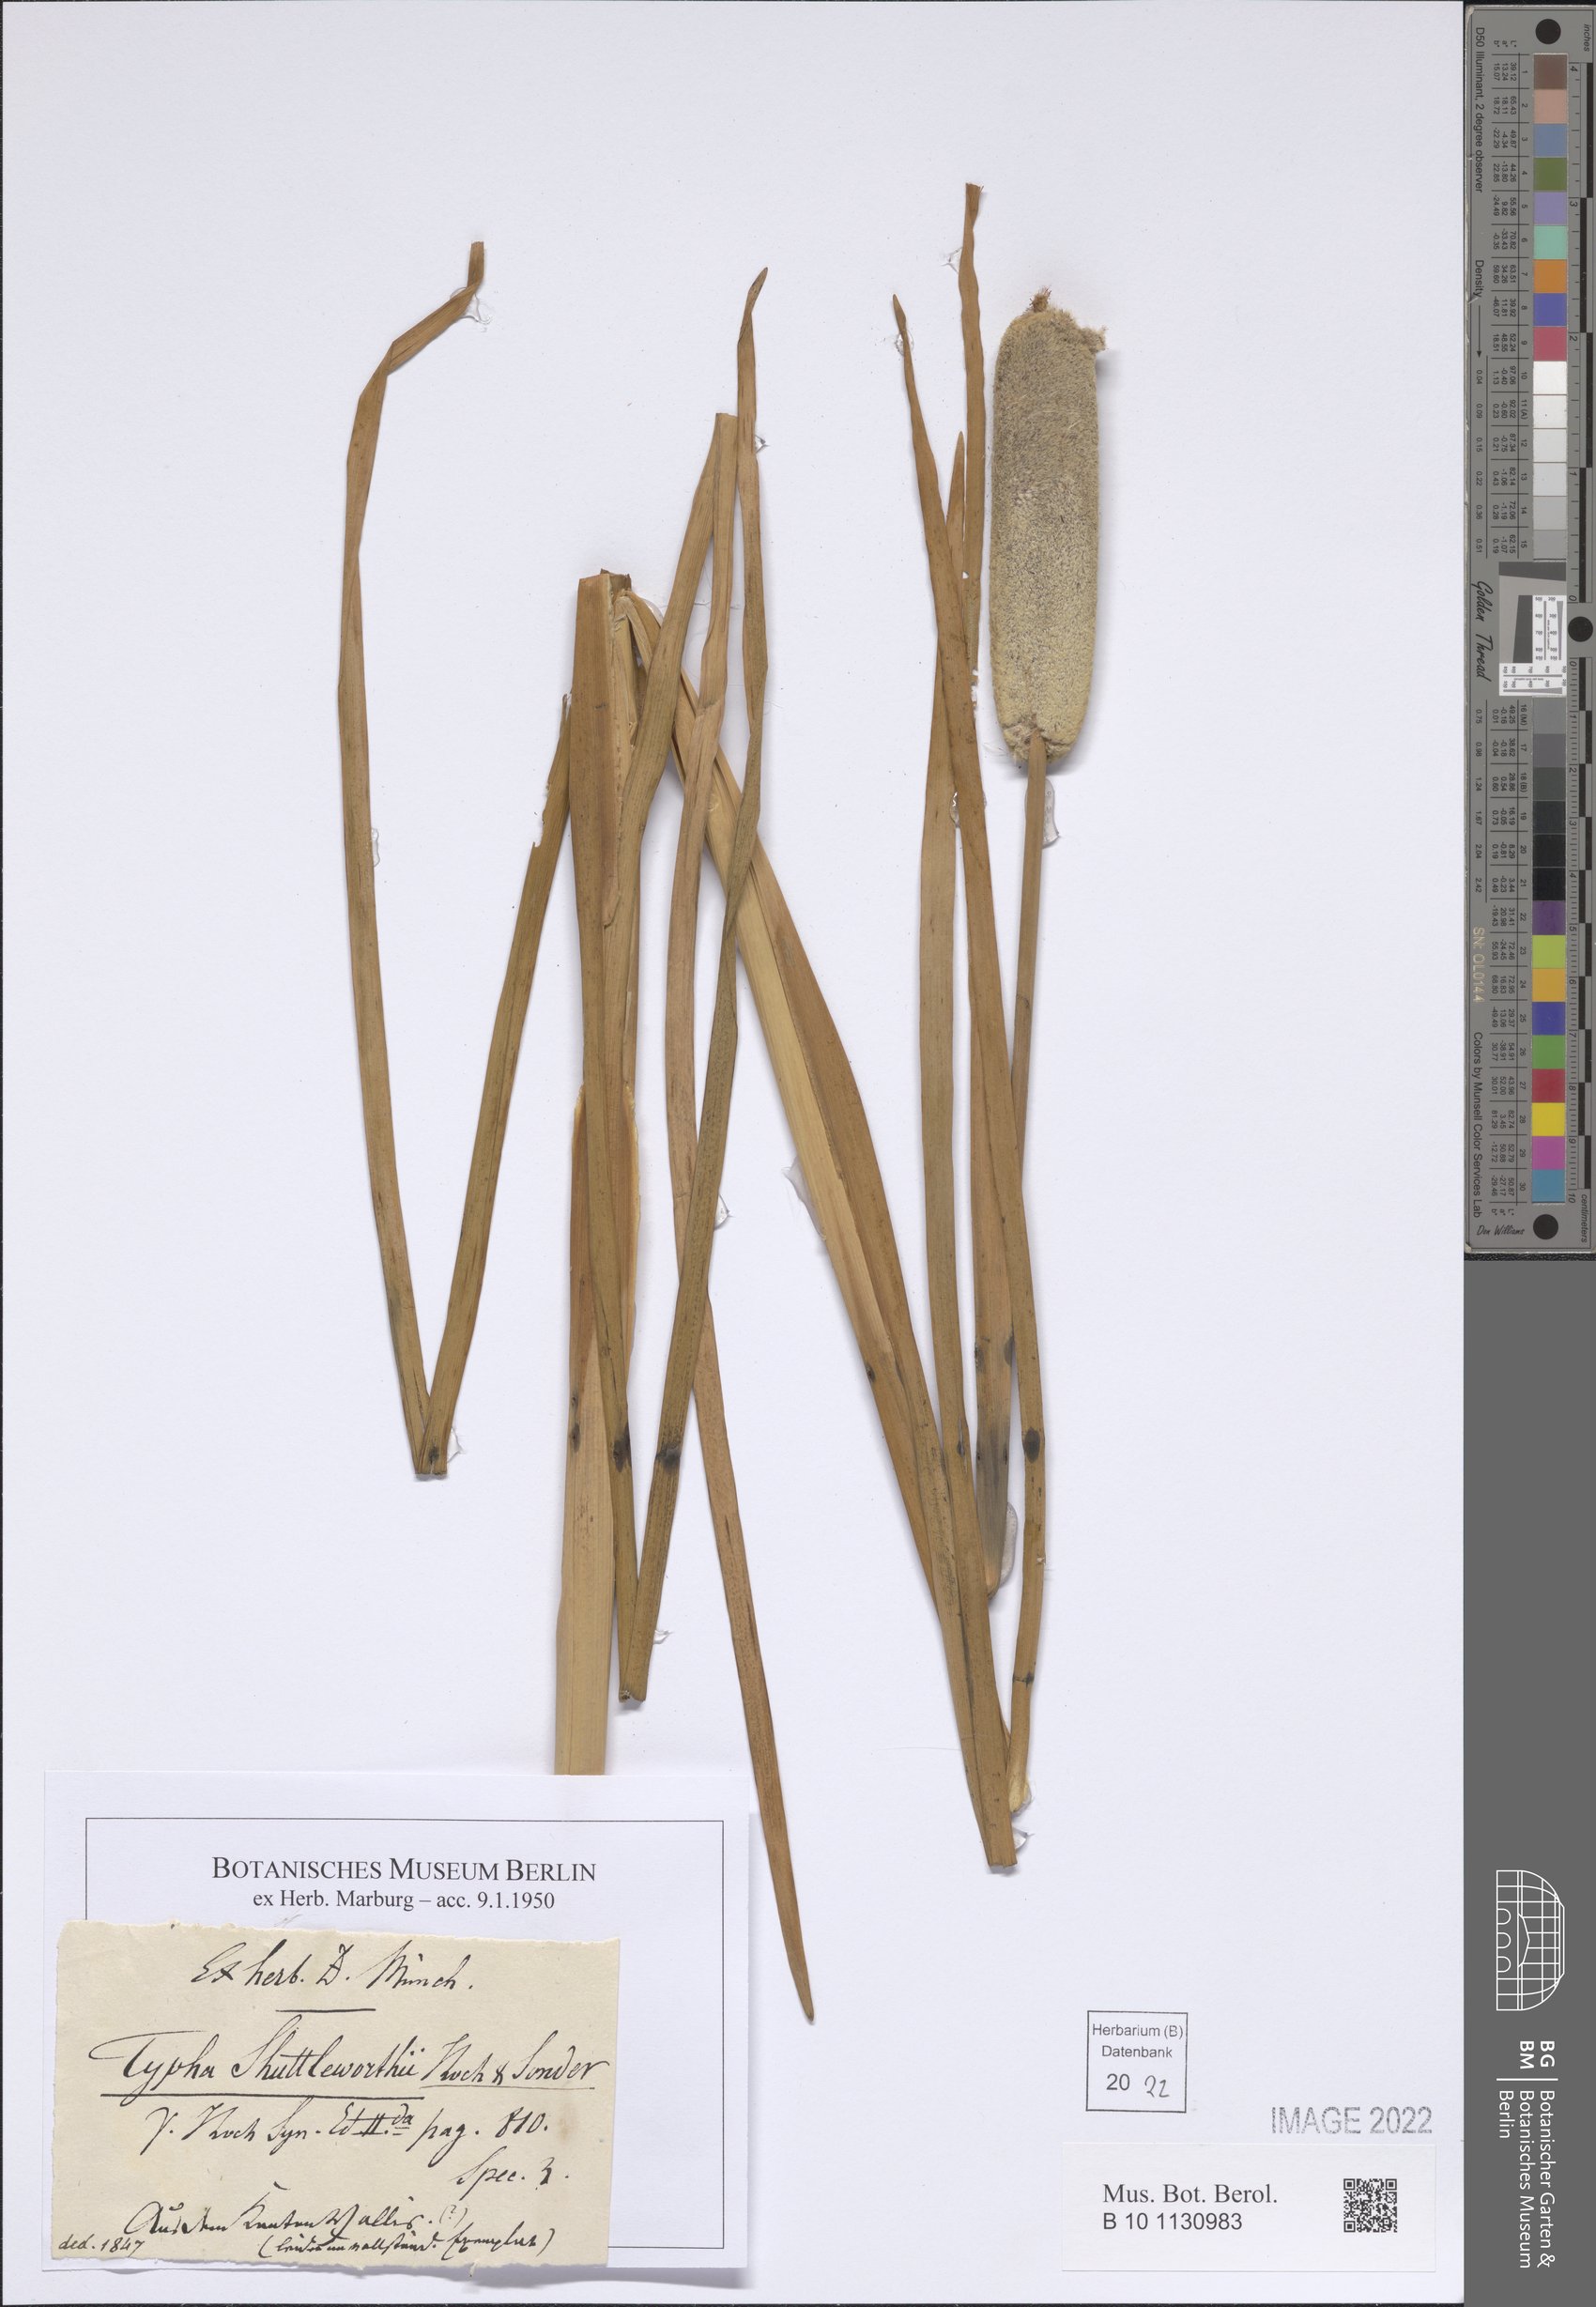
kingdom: Plantae
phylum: Tracheophyta
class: Liliopsida
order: Poales
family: Typhaceae
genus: Typha
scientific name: Typha shuttleworthii
